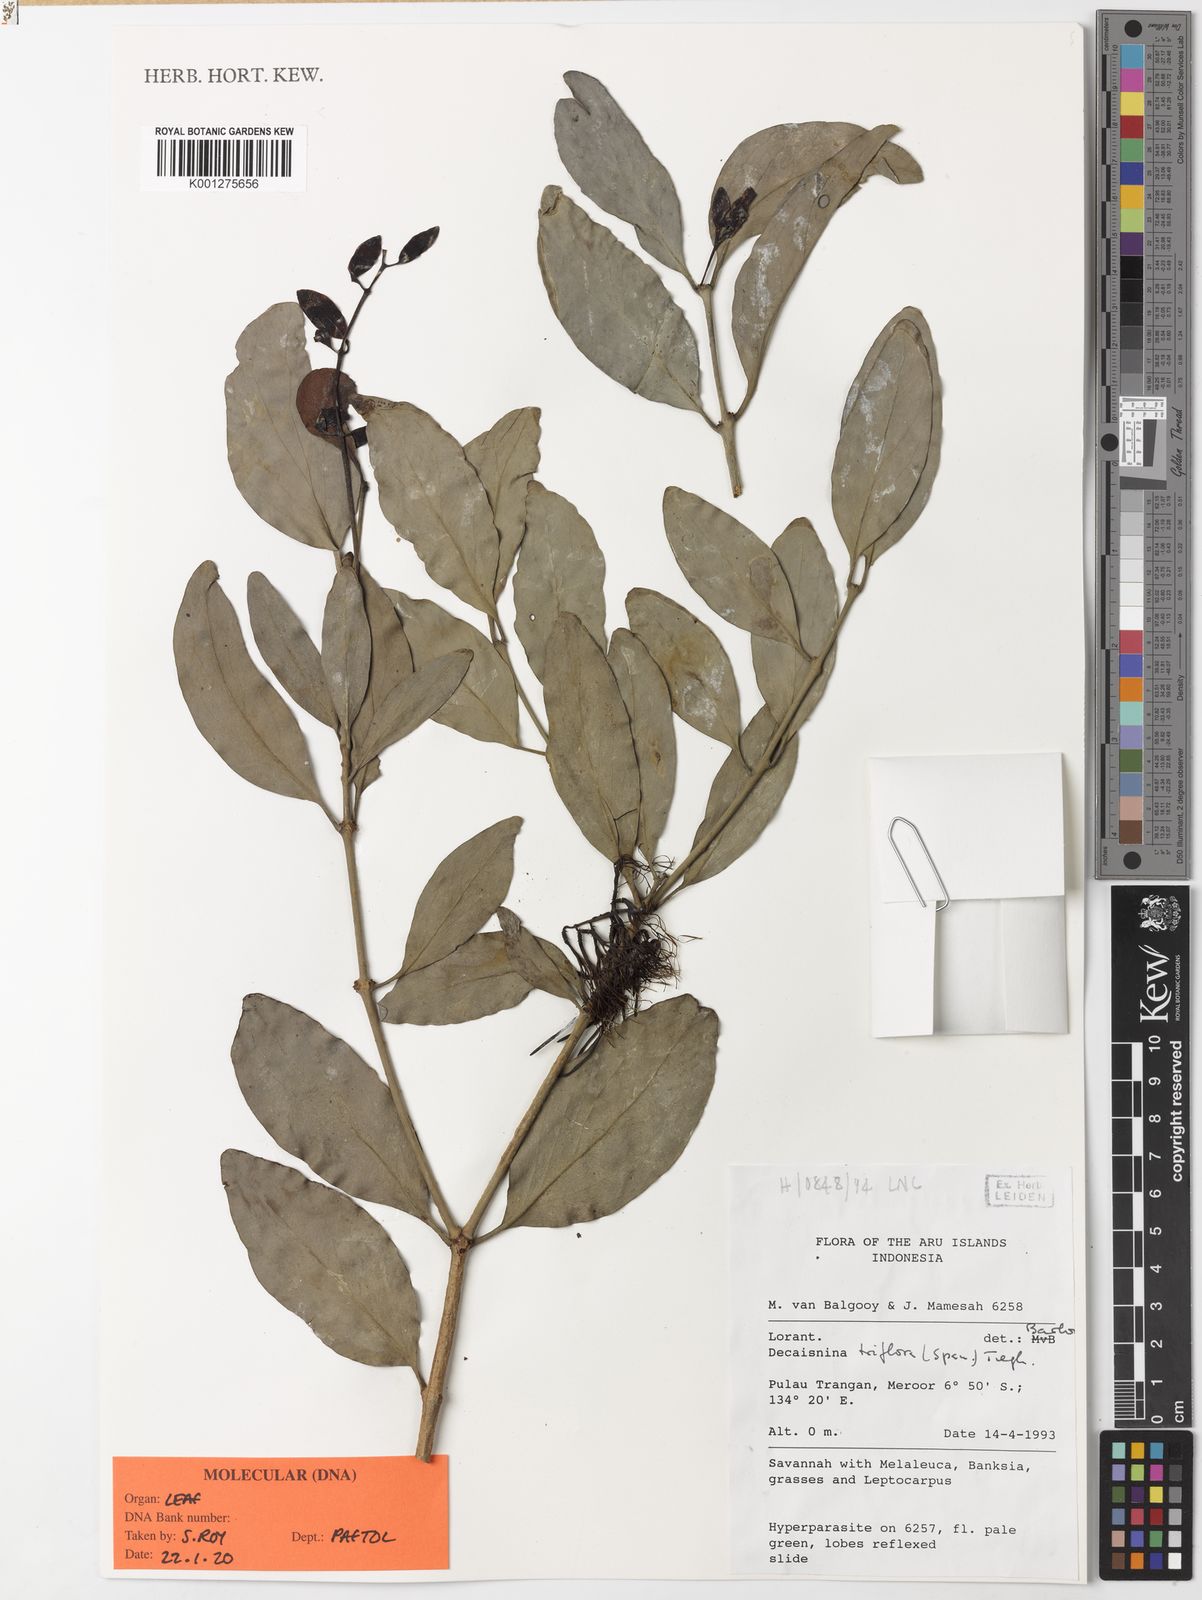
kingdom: Plantae
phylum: Tracheophyta
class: Magnoliopsida
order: Santalales
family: Loranthaceae
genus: Decaisnina
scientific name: Decaisnina triflora
